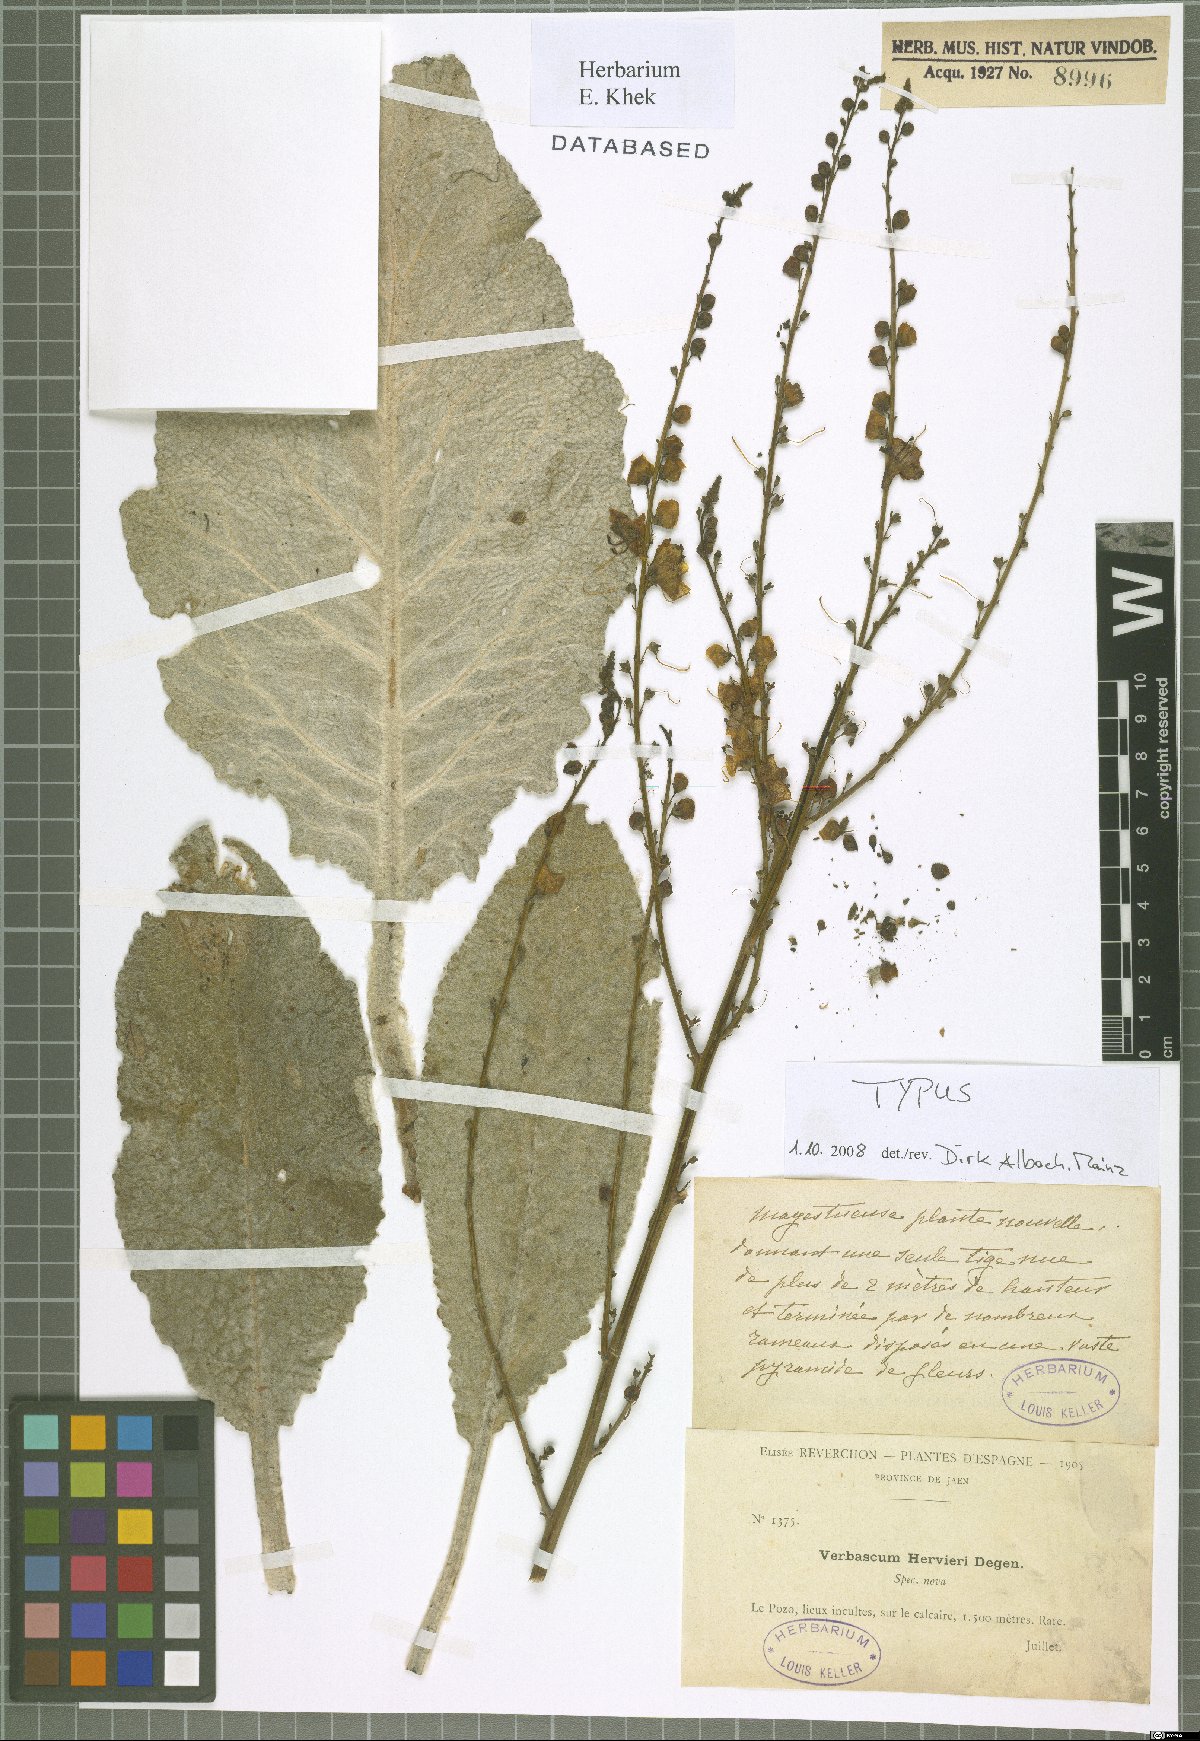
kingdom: Plantae
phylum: Tracheophyta
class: Magnoliopsida
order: Lamiales
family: Scrophulariaceae
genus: Verbascum
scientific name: Verbascum hervieri
